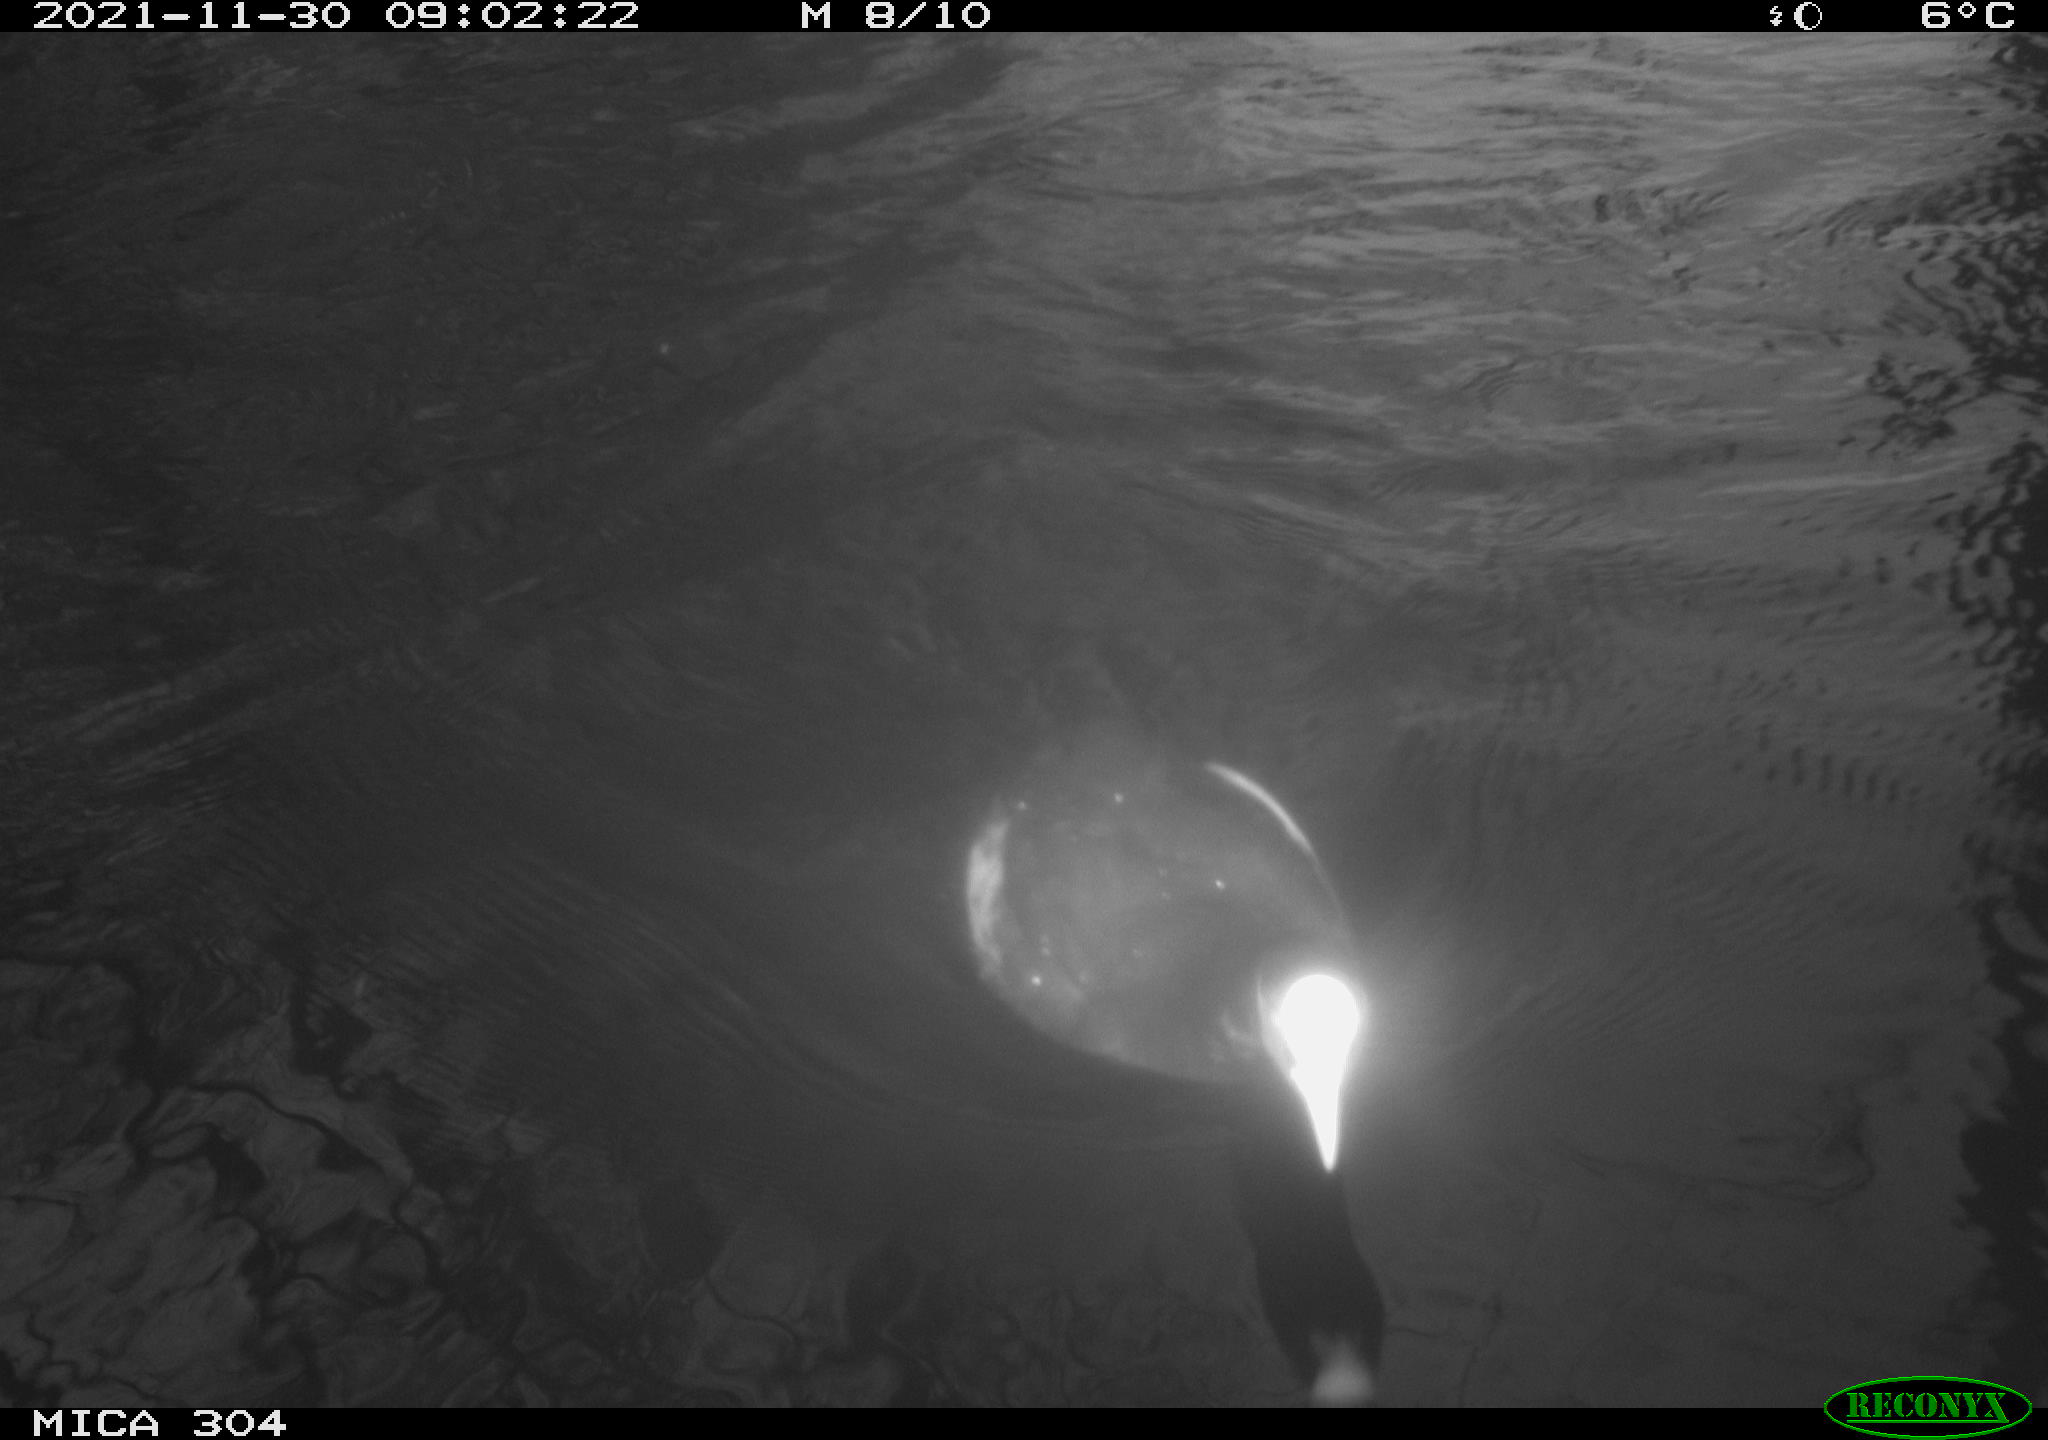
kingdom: Animalia
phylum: Chordata
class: Aves
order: Gruiformes
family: Rallidae
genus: Fulica
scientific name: Fulica atra
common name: Eurasian coot
